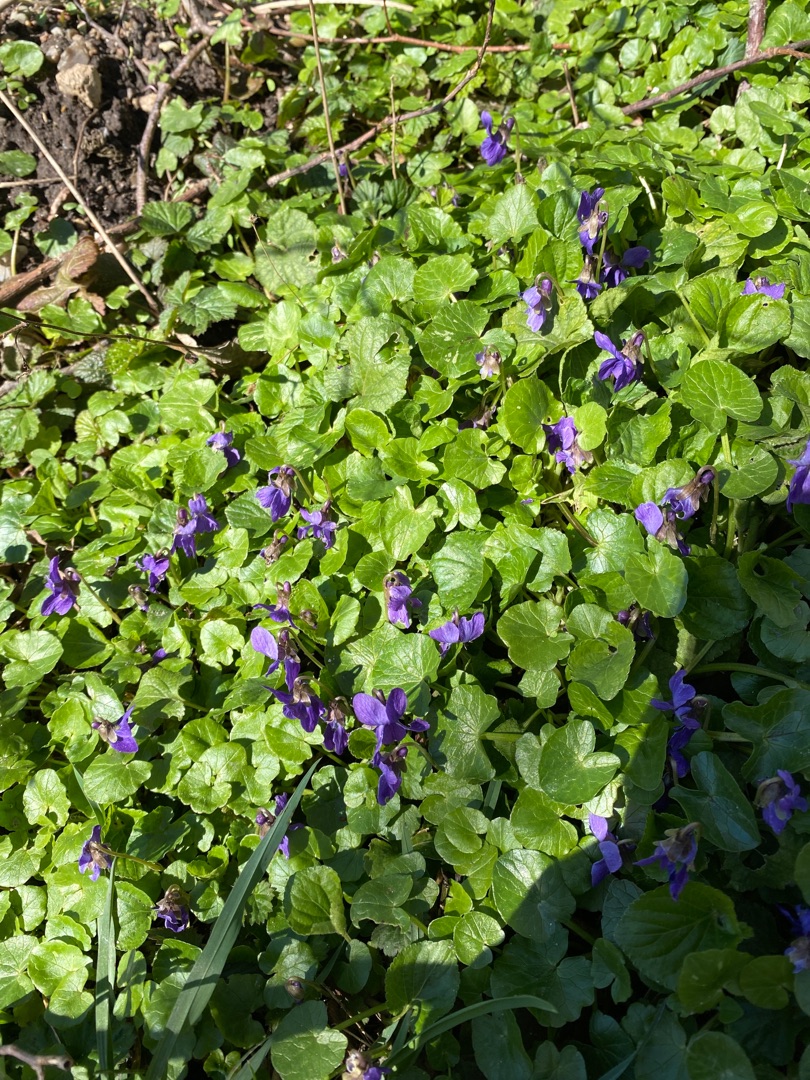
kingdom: Plantae
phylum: Tracheophyta
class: Magnoliopsida
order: Malpighiales
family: Violaceae
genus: Viola
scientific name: Viola odorata
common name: Marts-viol
